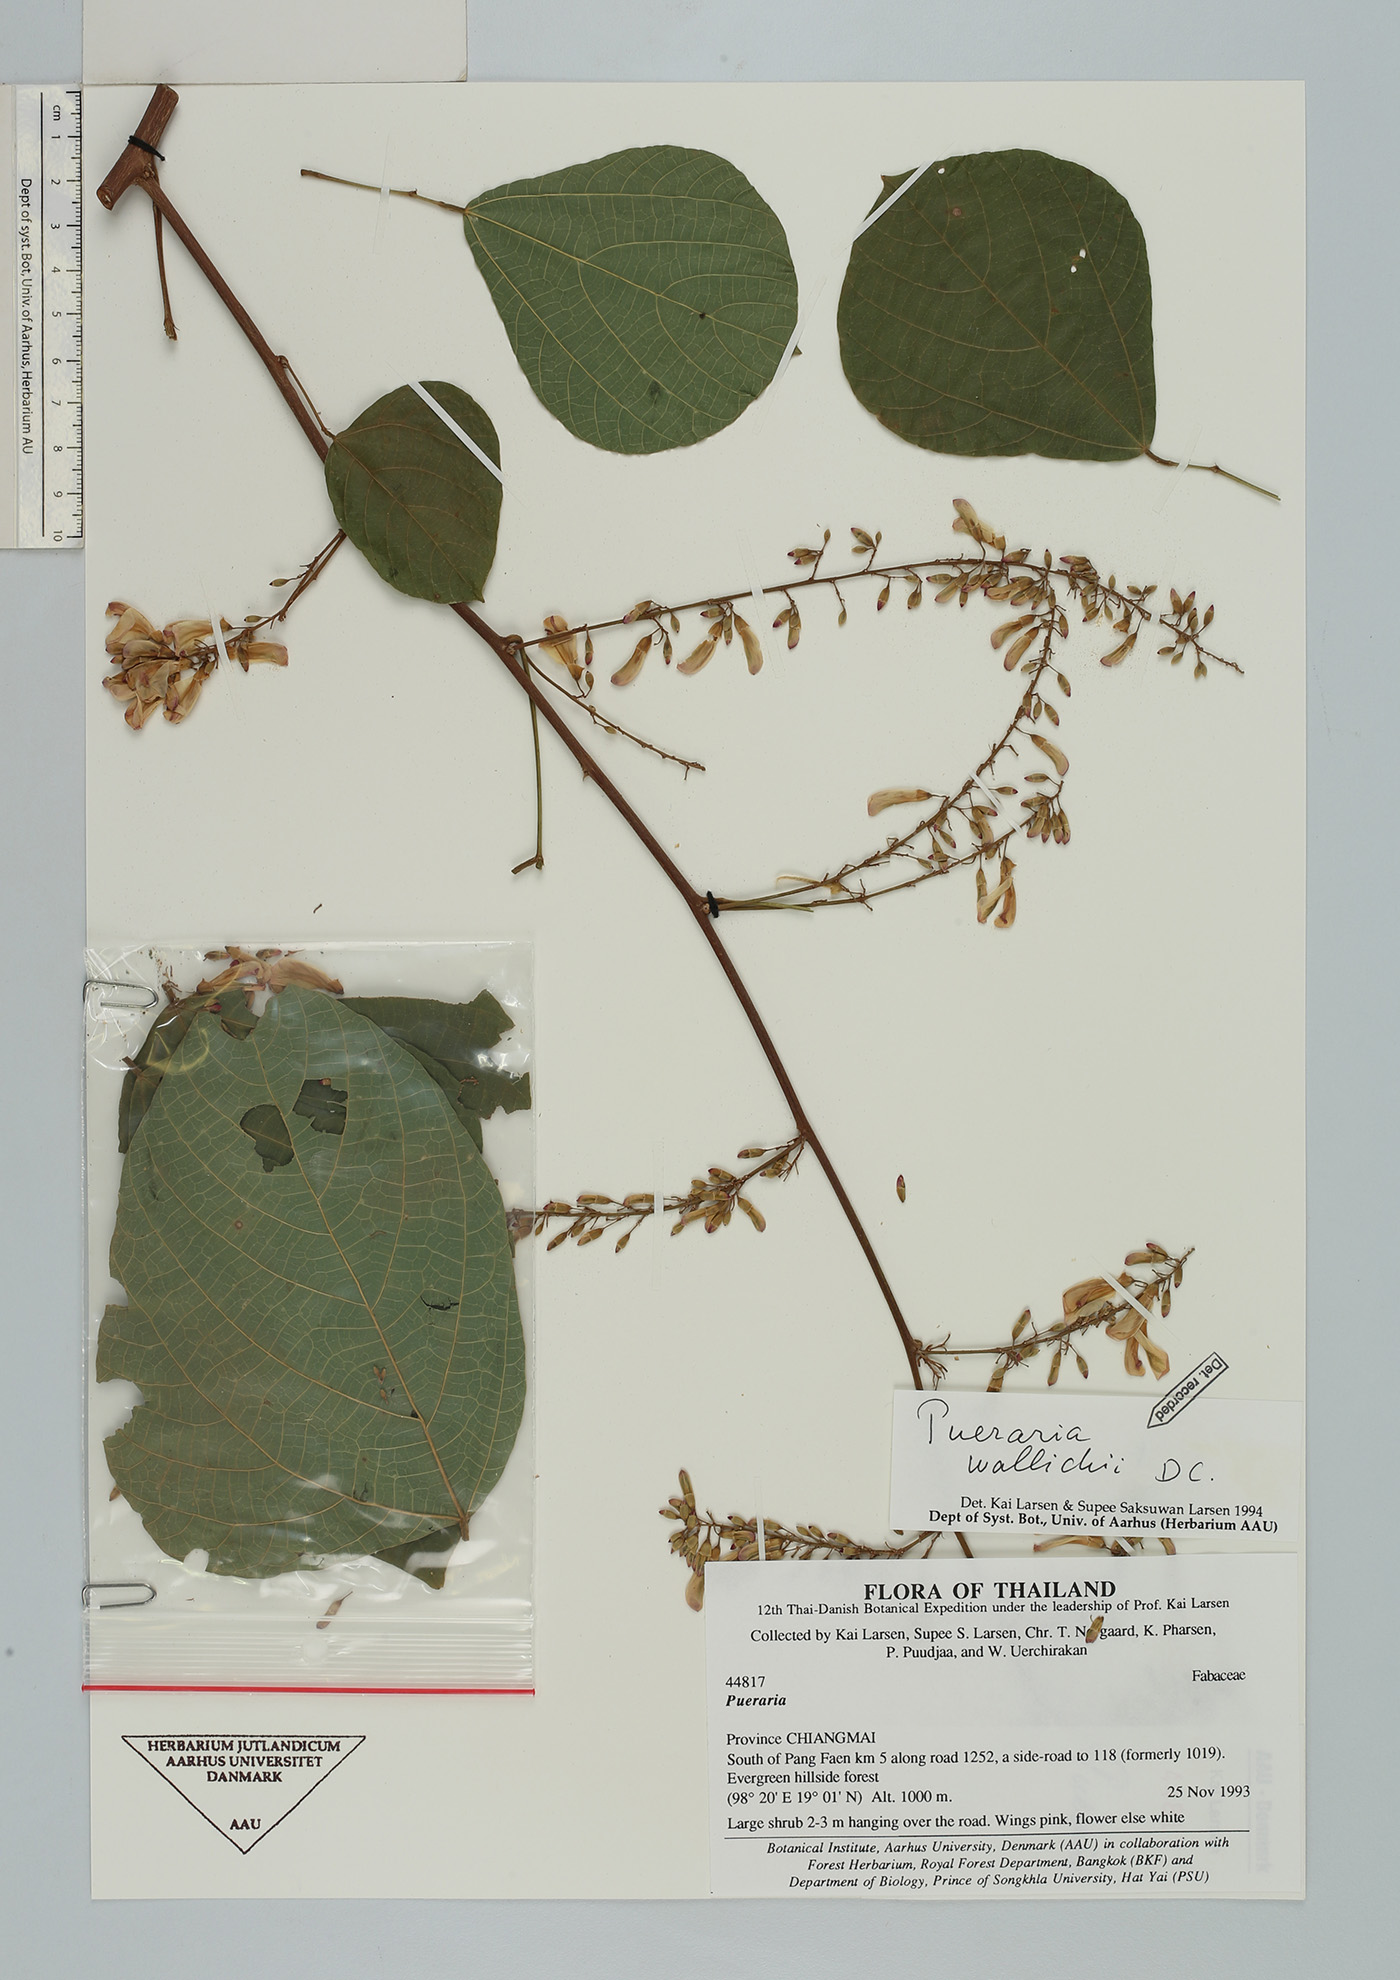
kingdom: Plantae
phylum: Tracheophyta
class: Magnoliopsida
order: Fabales
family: Fabaceae
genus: Haymondia
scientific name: Haymondia wallichii
